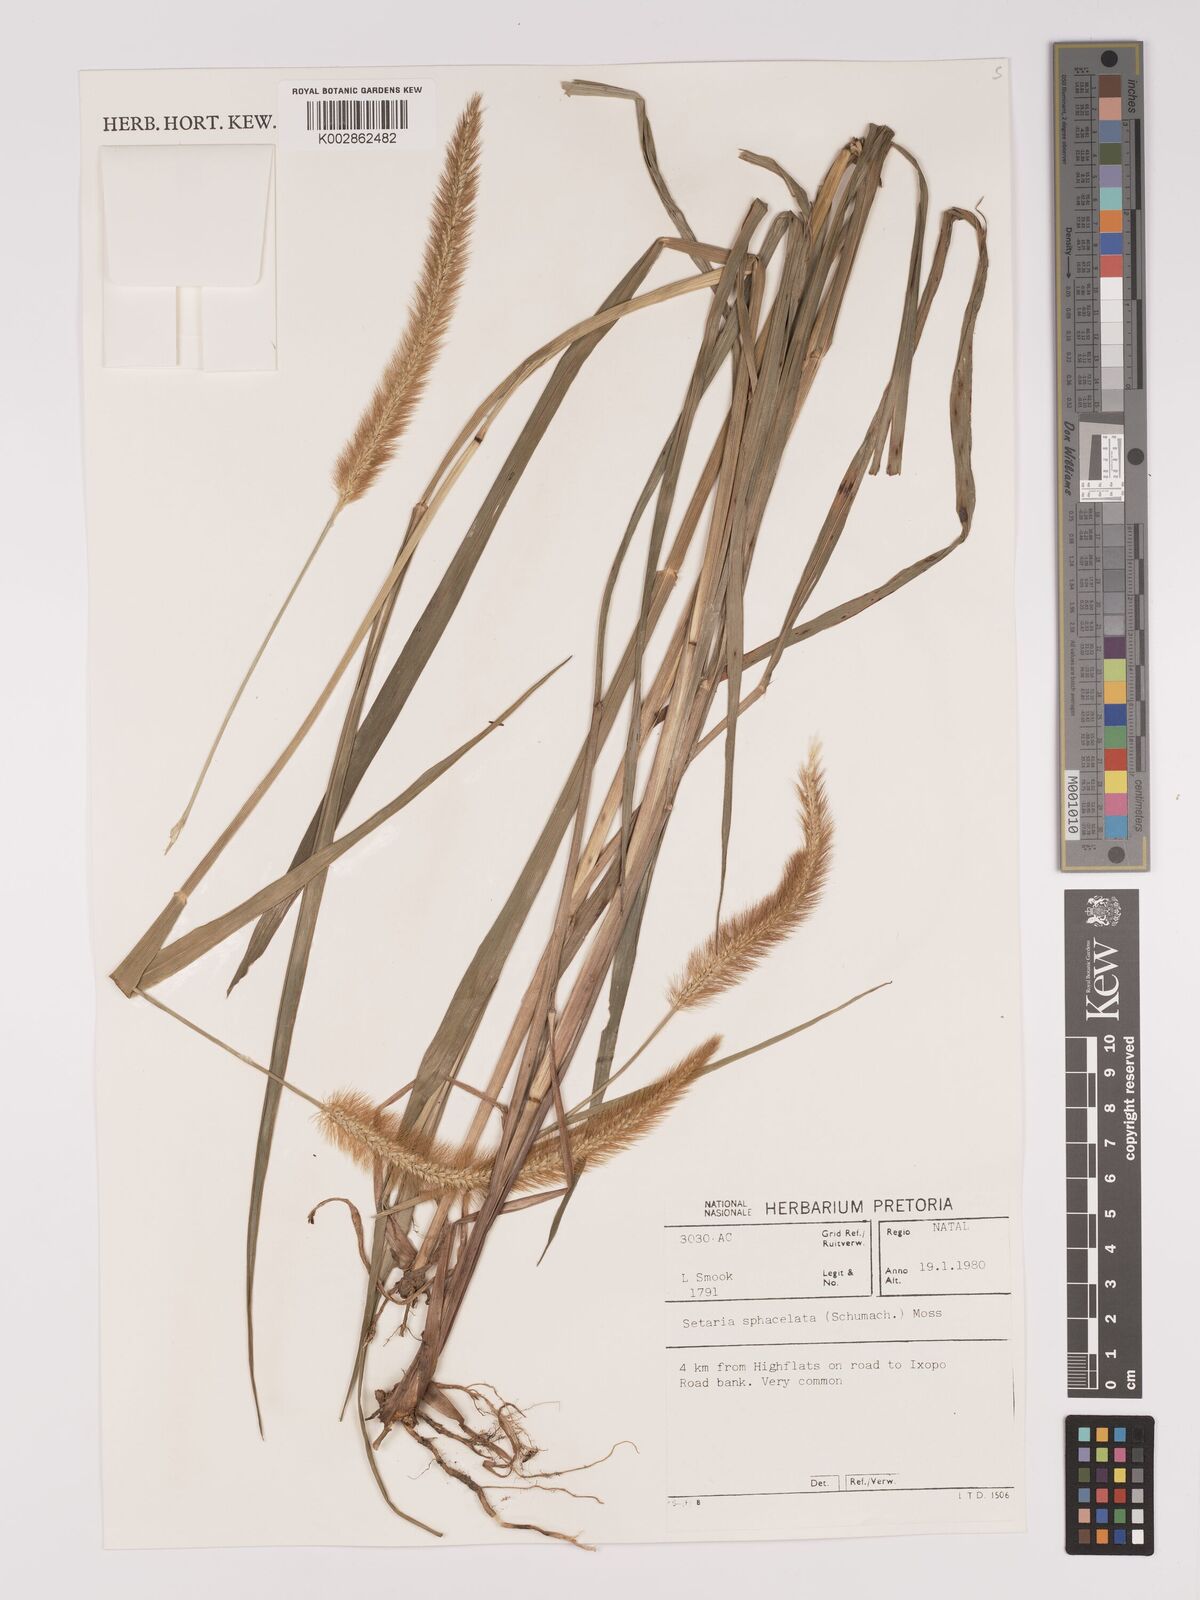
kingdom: Plantae
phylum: Tracheophyta
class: Liliopsida
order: Poales
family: Poaceae
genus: Setaria
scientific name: Setaria sphacelata
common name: African bristlegrass
